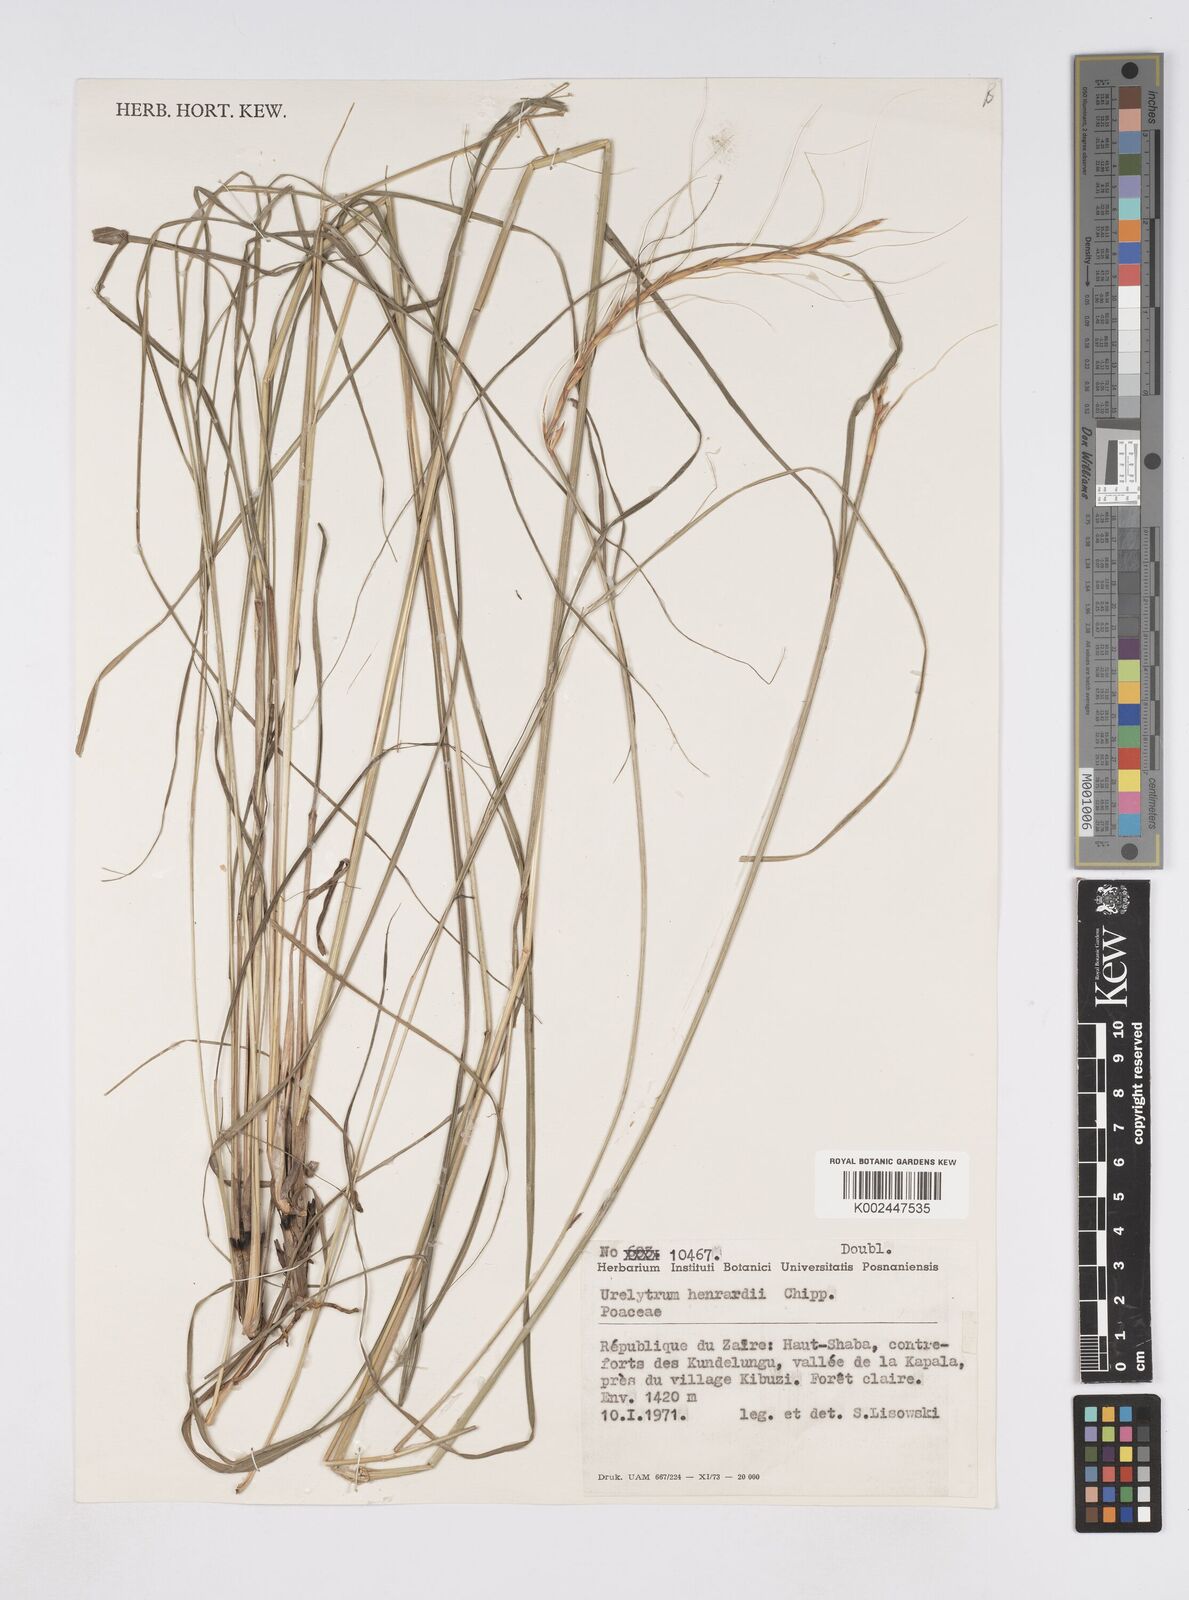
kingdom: Plantae
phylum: Tracheophyta
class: Liliopsida
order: Poales
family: Poaceae
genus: Urelytrum
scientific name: Urelytrum agropyroides
